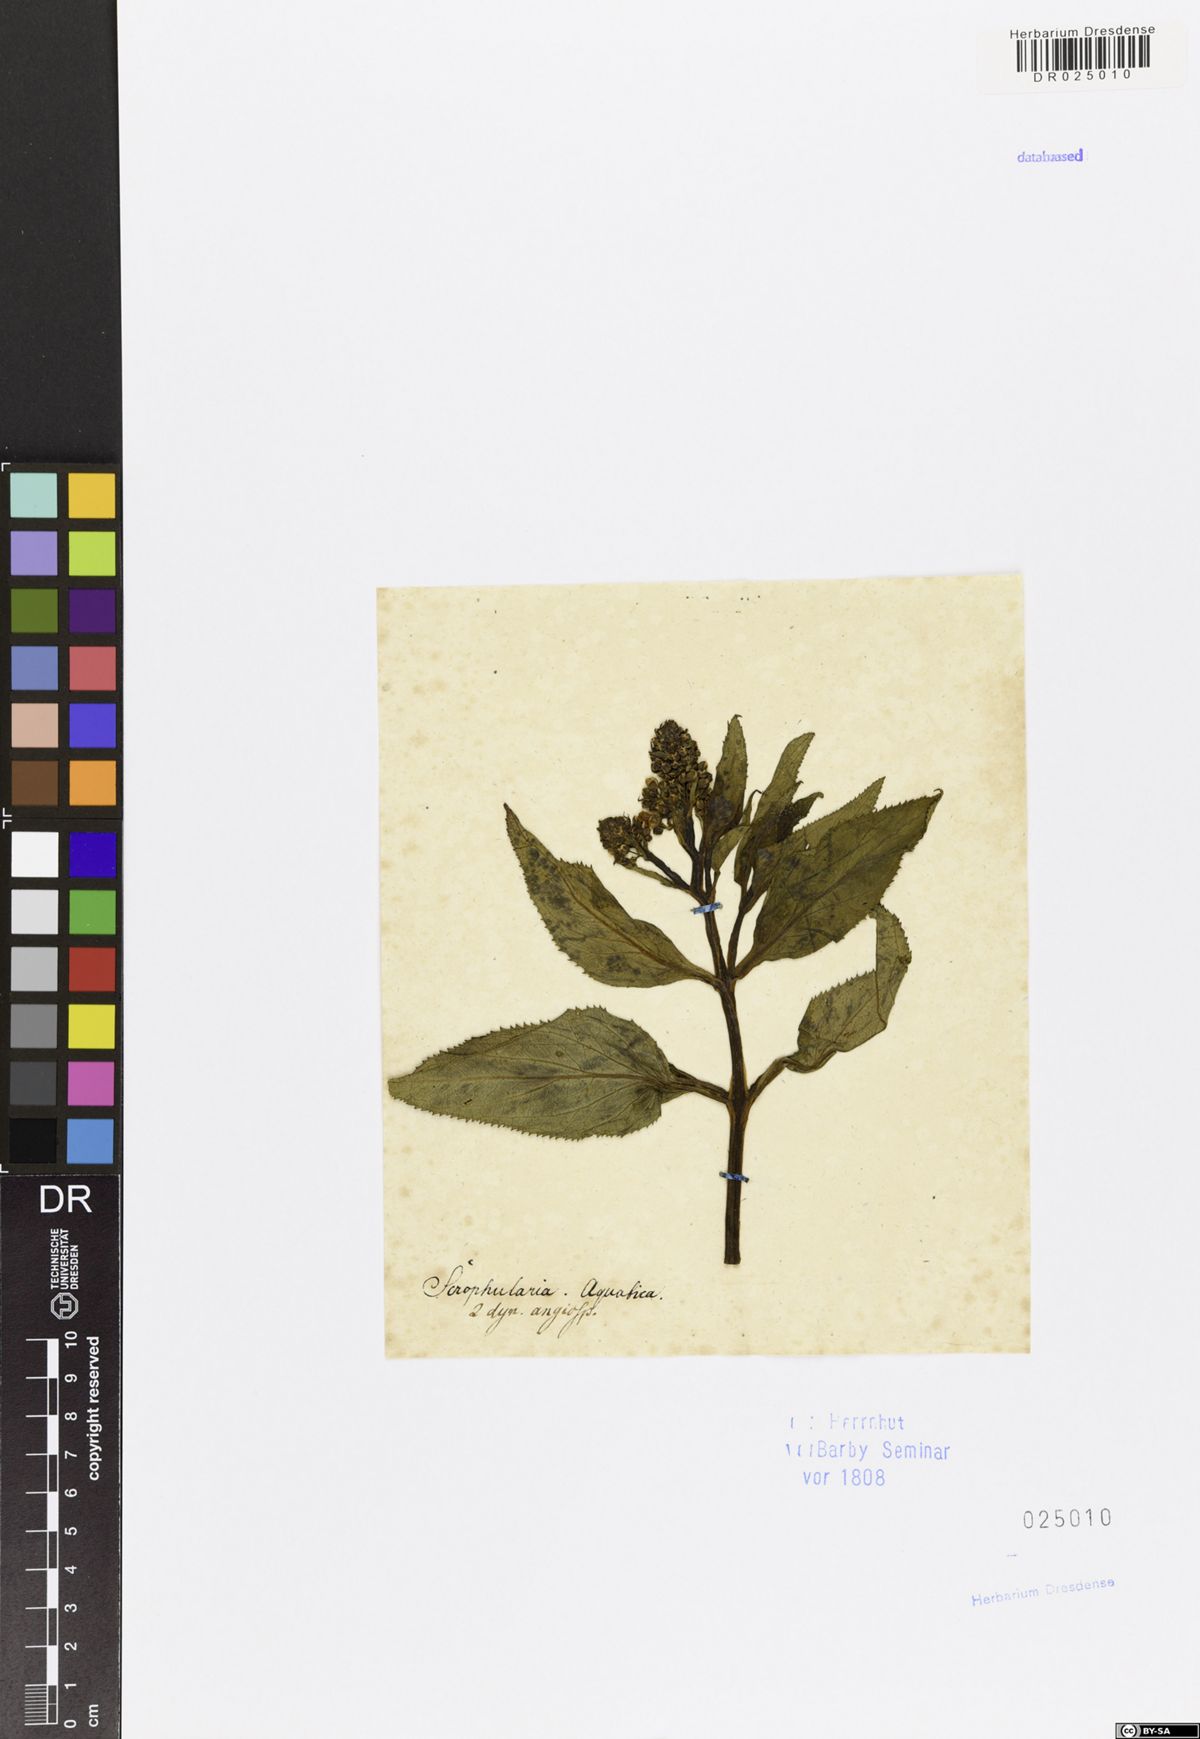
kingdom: Plantae
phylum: Tracheophyta
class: Magnoliopsida
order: Lamiales
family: Scrophulariaceae
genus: Scrophularia
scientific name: Scrophularia umbrosa
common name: Green figwort
